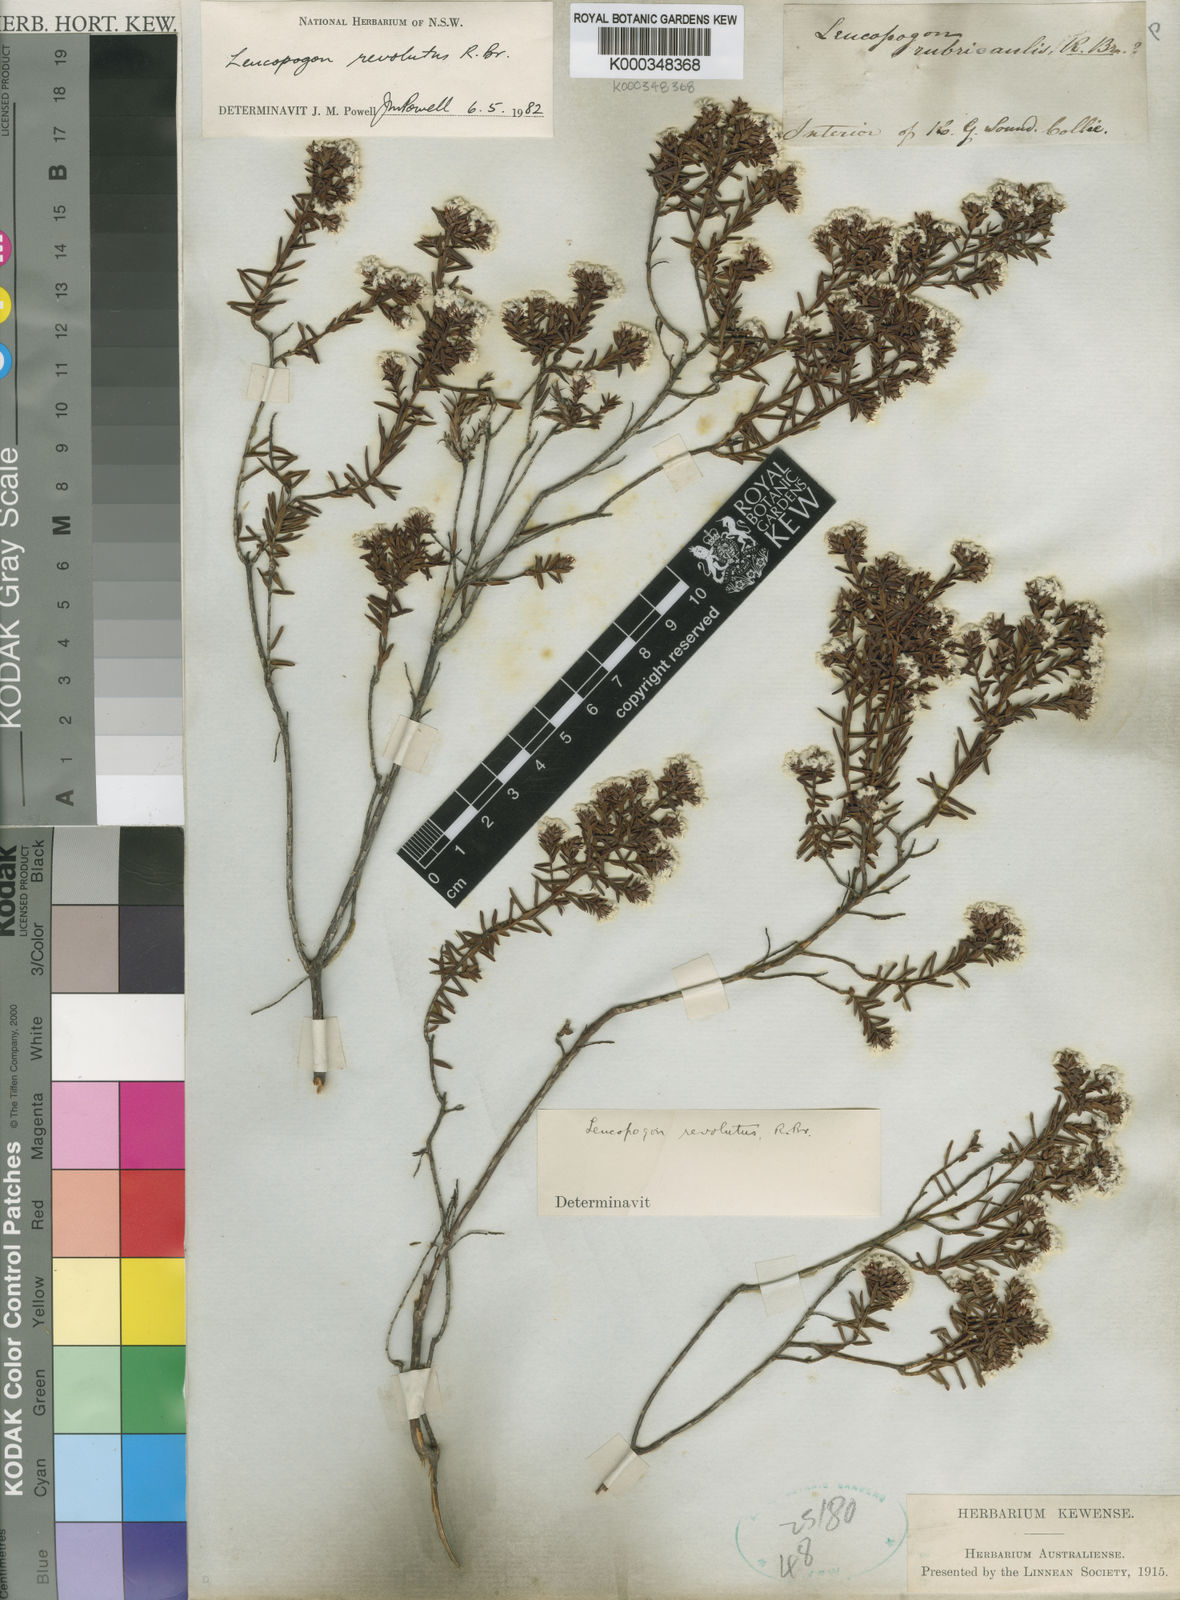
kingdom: Plantae
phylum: Tracheophyta
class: Magnoliopsida
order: Ericales
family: Ericaceae
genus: Leucopogon
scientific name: Leucopogon obovatus
